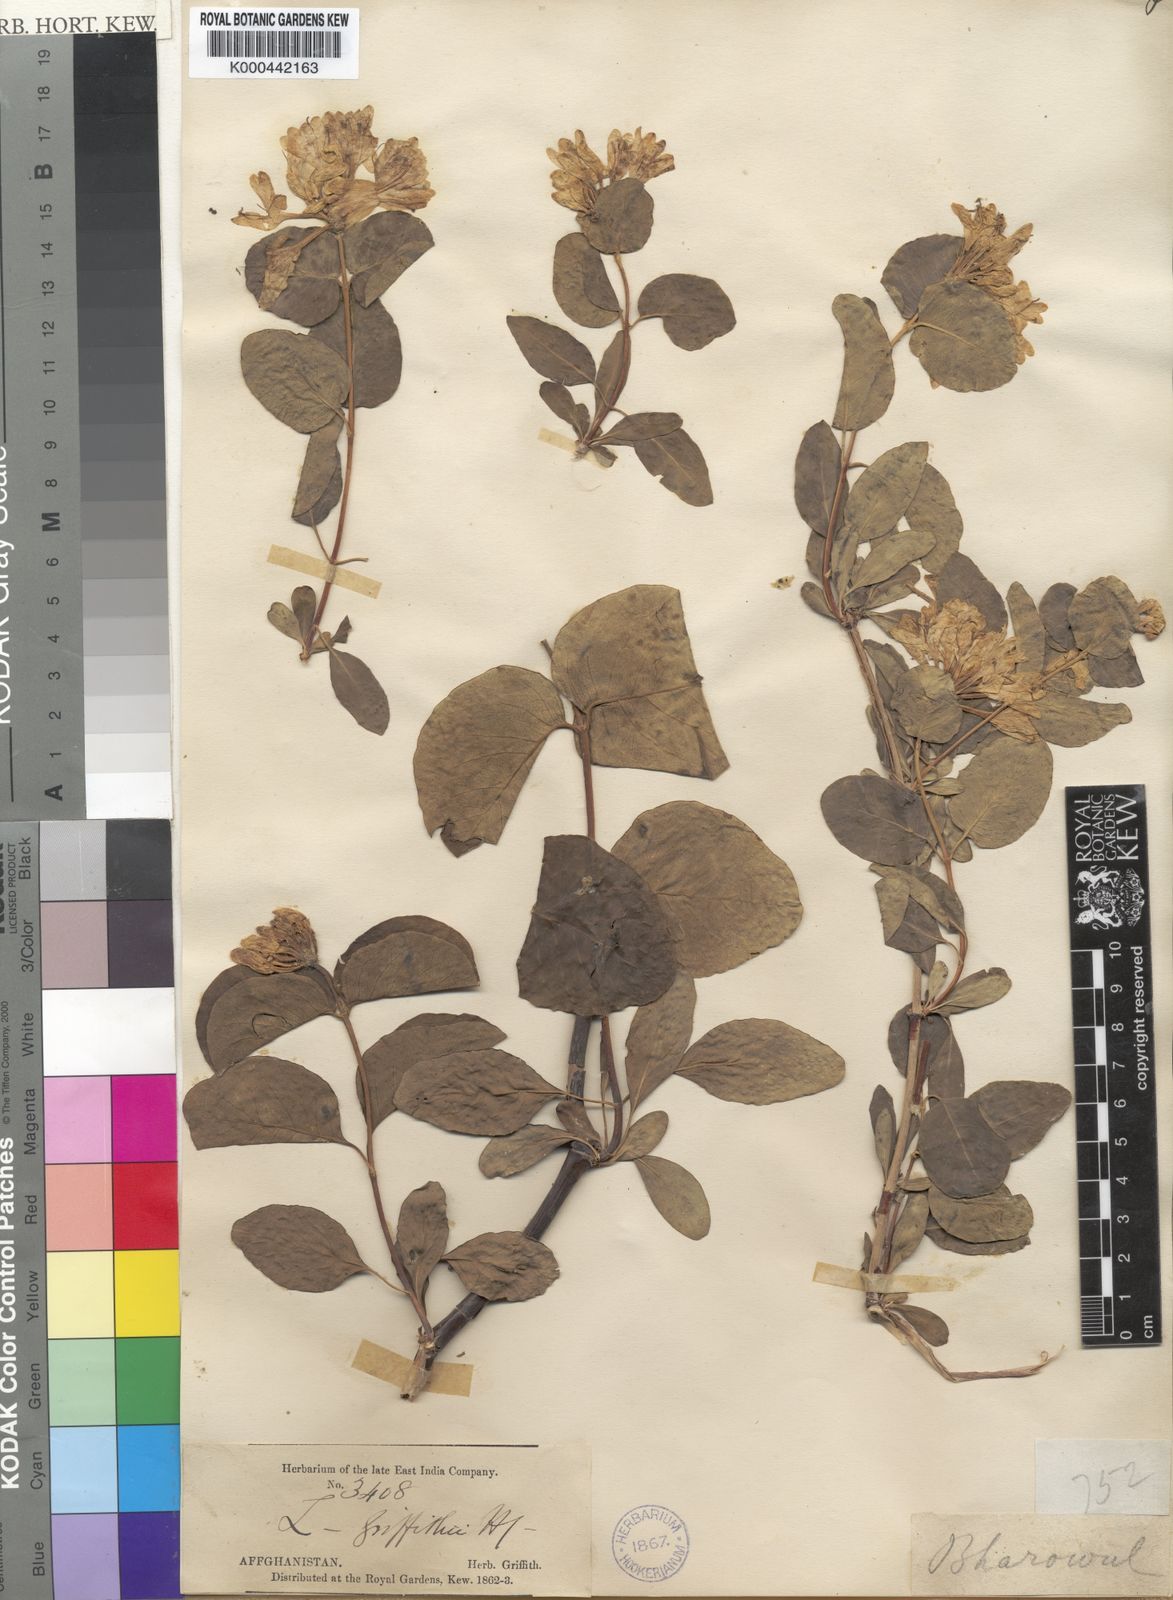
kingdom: Plantae
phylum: Tracheophyta
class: Magnoliopsida
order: Dipsacales
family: Caprifoliaceae
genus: Lonicera
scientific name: Lonicera griffithii
